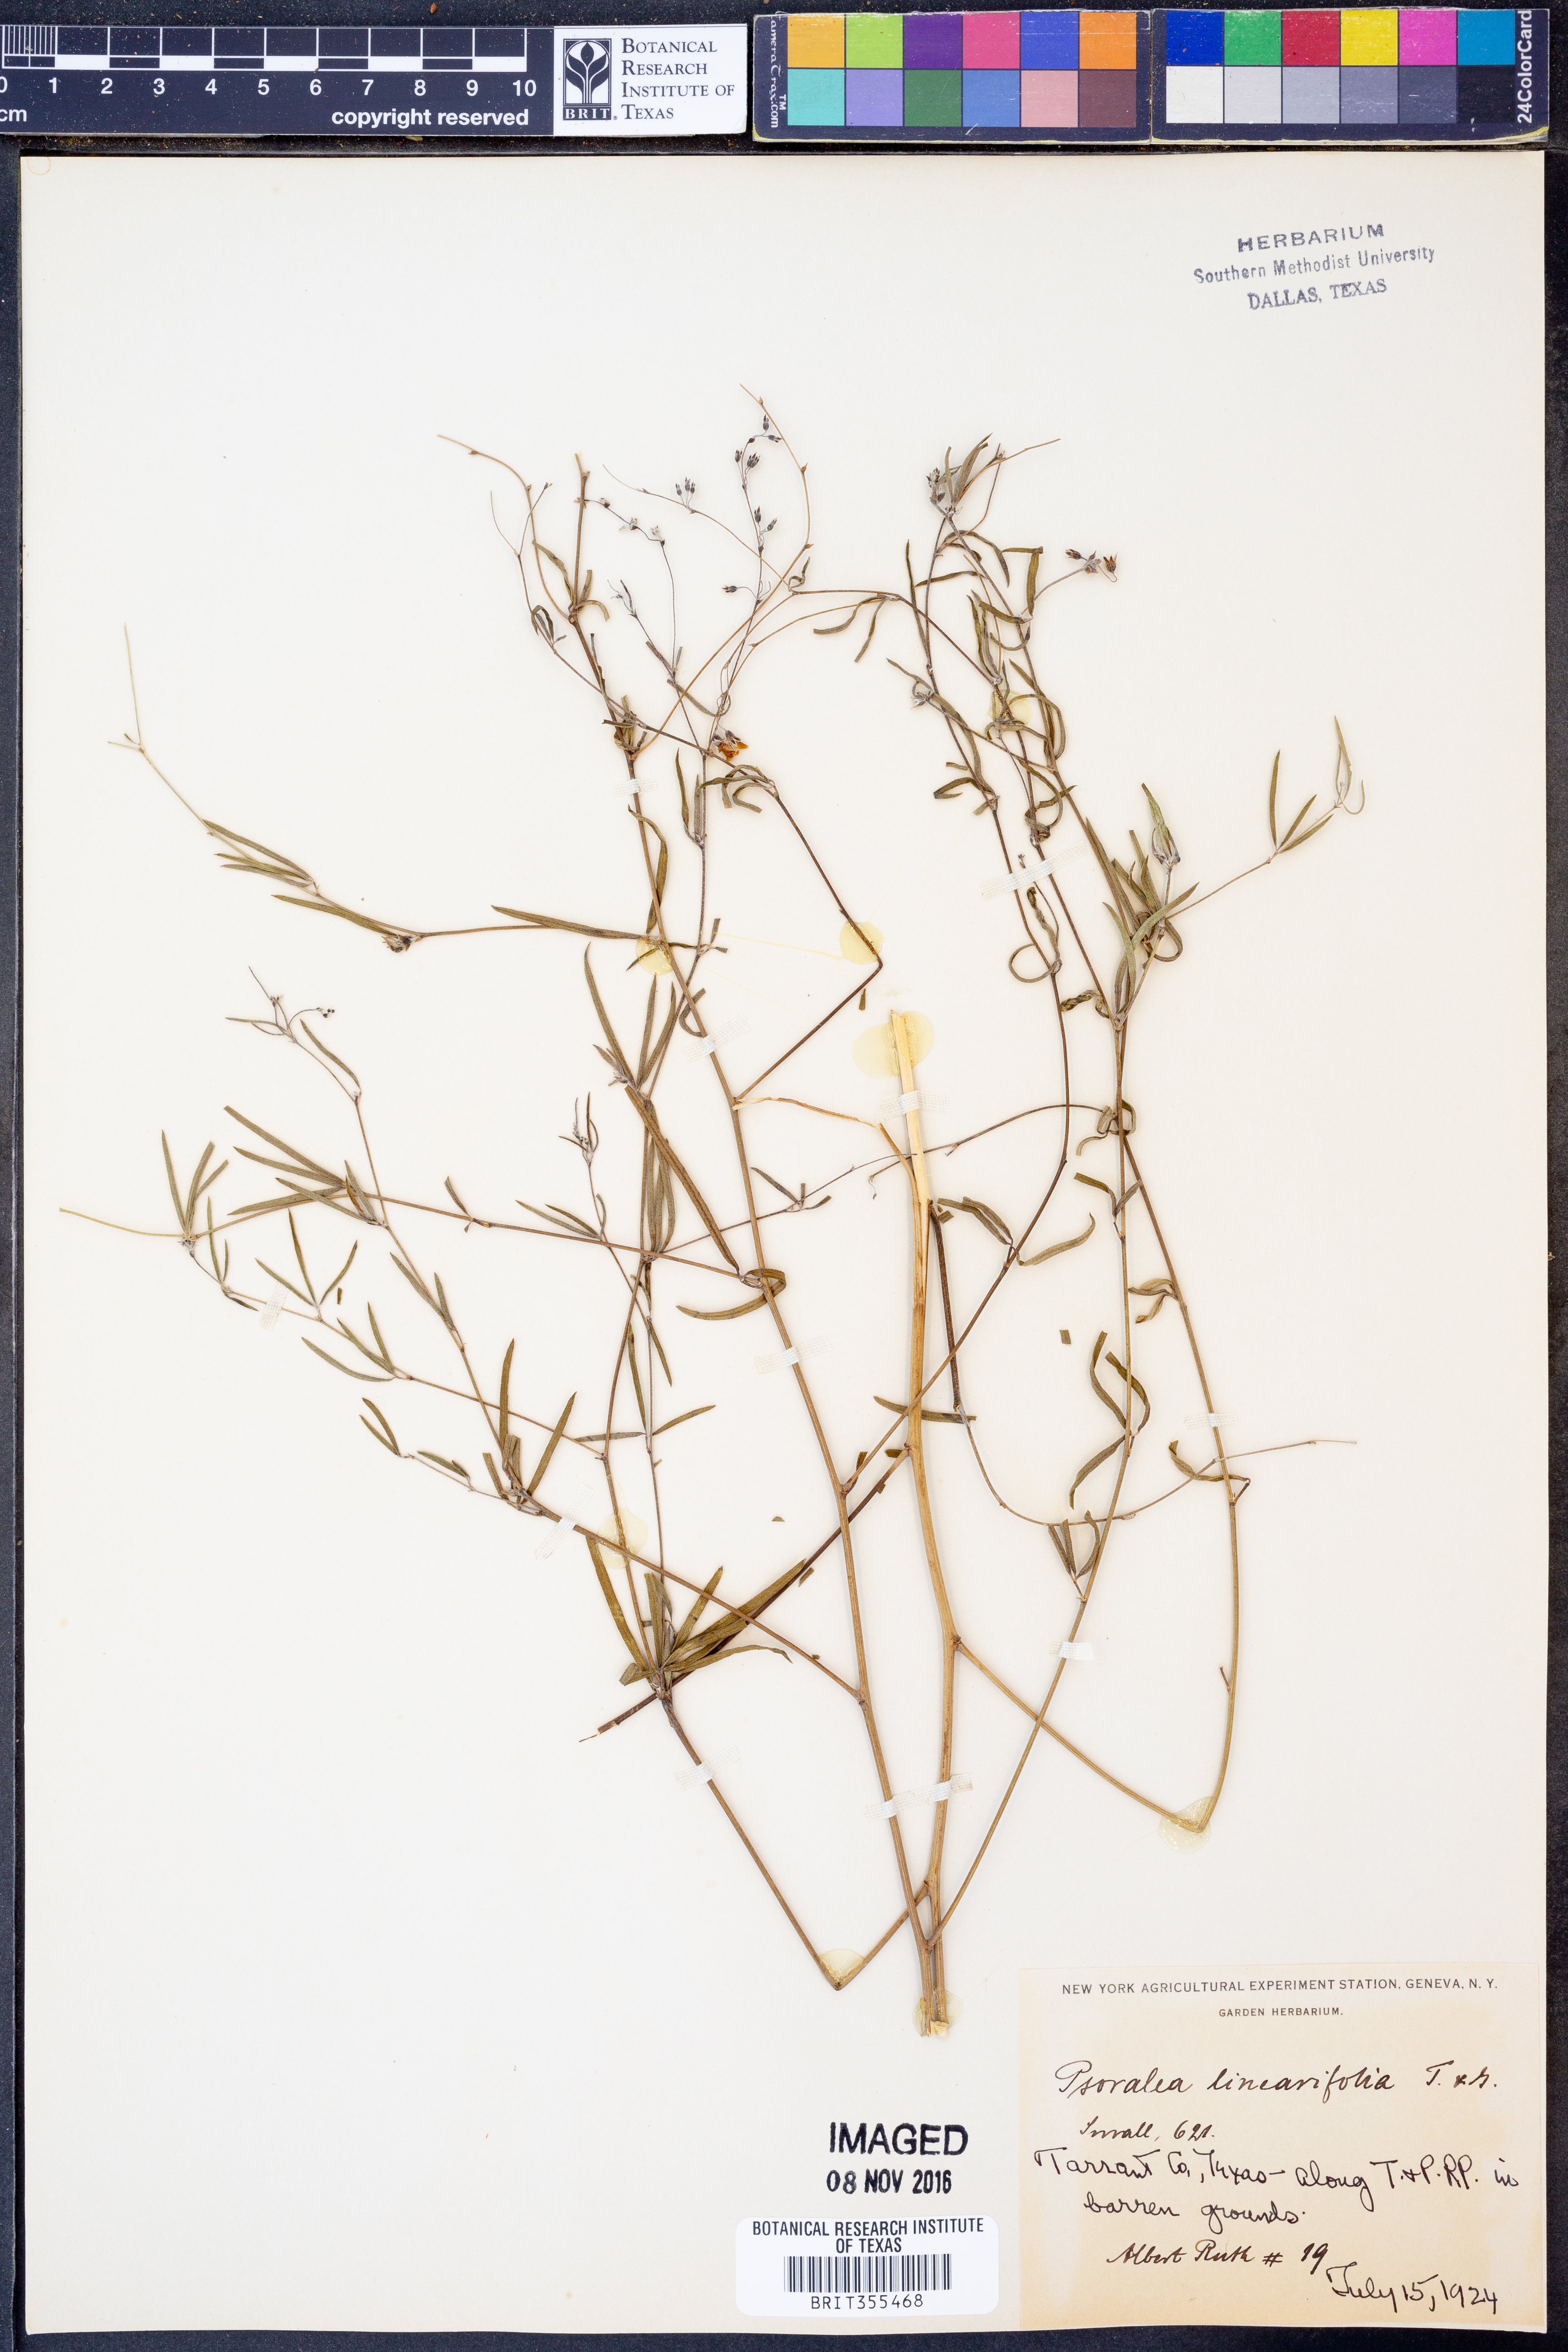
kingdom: Plantae
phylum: Tracheophyta
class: Magnoliopsida
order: Fabales
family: Fabaceae
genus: Pediomelum
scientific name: Pediomelum linearifolium
